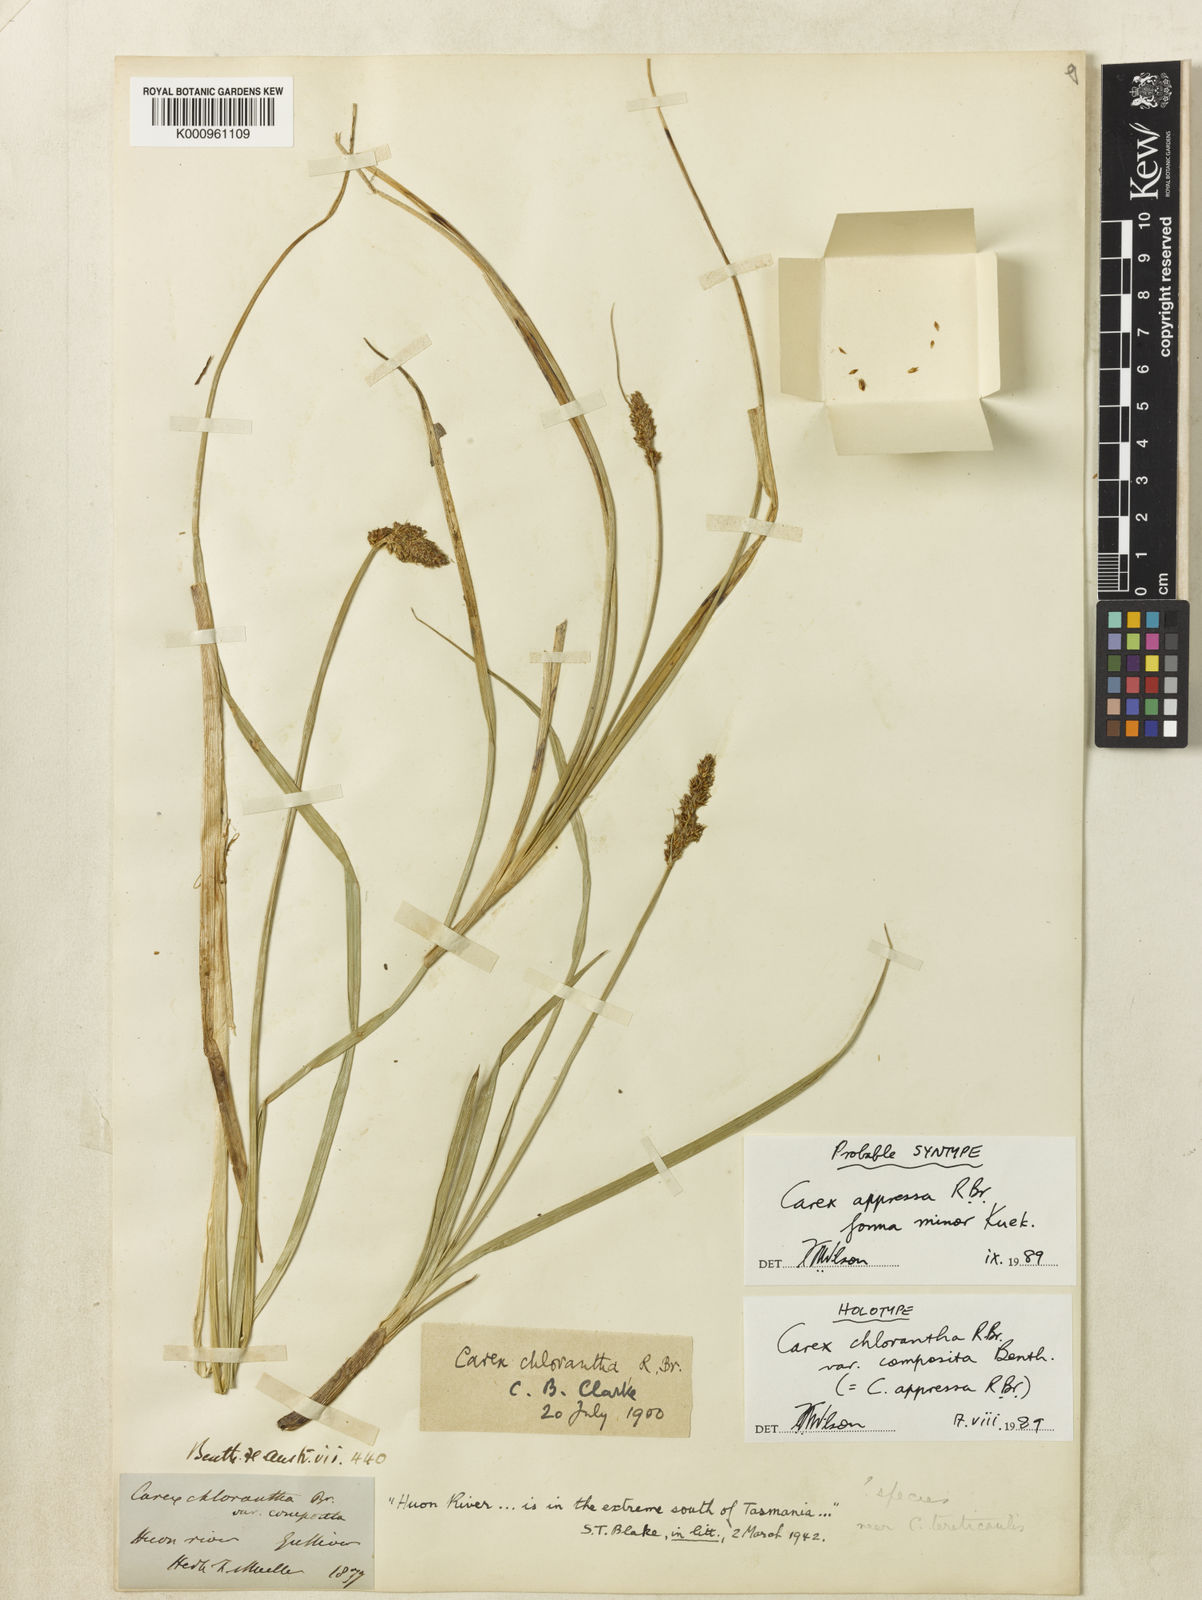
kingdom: Plantae
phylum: Tracheophyta
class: Liliopsida
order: Poales
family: Cyperaceae
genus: Carex
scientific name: Carex appressa
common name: Tussock sedge
